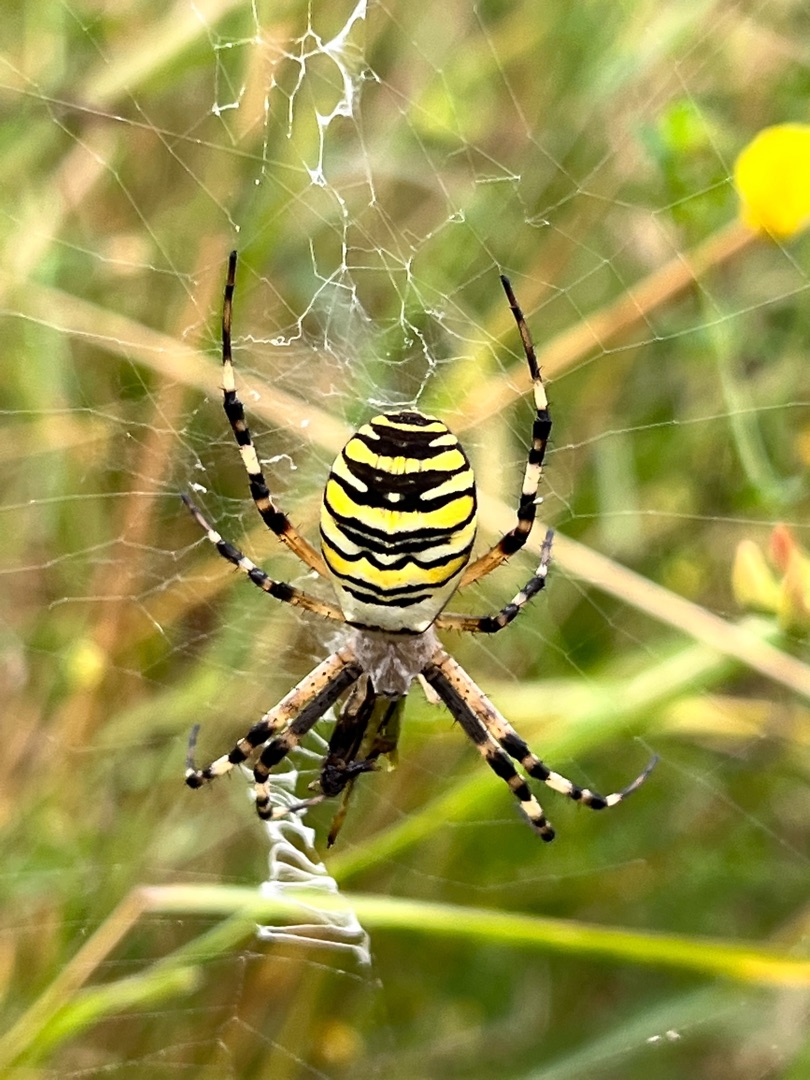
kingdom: Animalia
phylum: Arthropoda
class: Arachnida
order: Araneae
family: Araneidae
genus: Argiope
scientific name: Argiope bruennichi
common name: Hvepseedderkop
